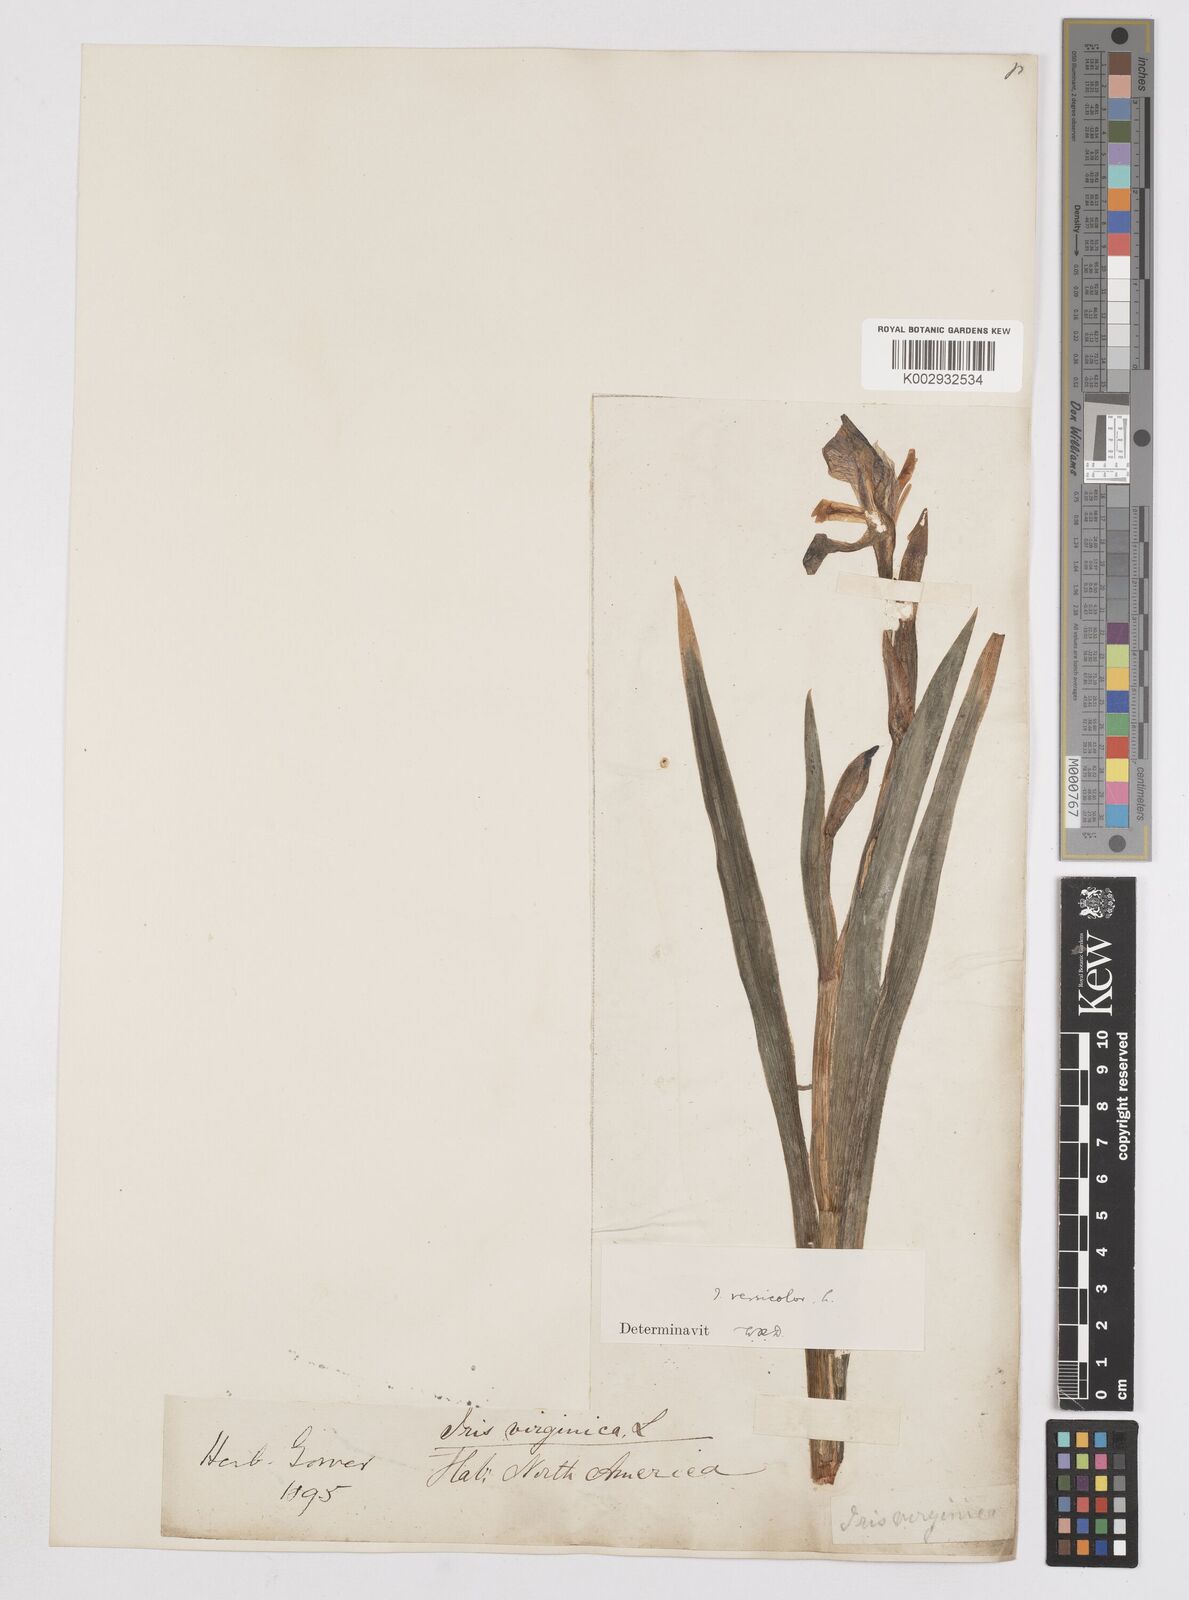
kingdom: Plantae
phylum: Tracheophyta
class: Liliopsida
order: Asparagales
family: Iridaceae
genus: Iris
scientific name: Iris versicolor
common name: Purple iris
